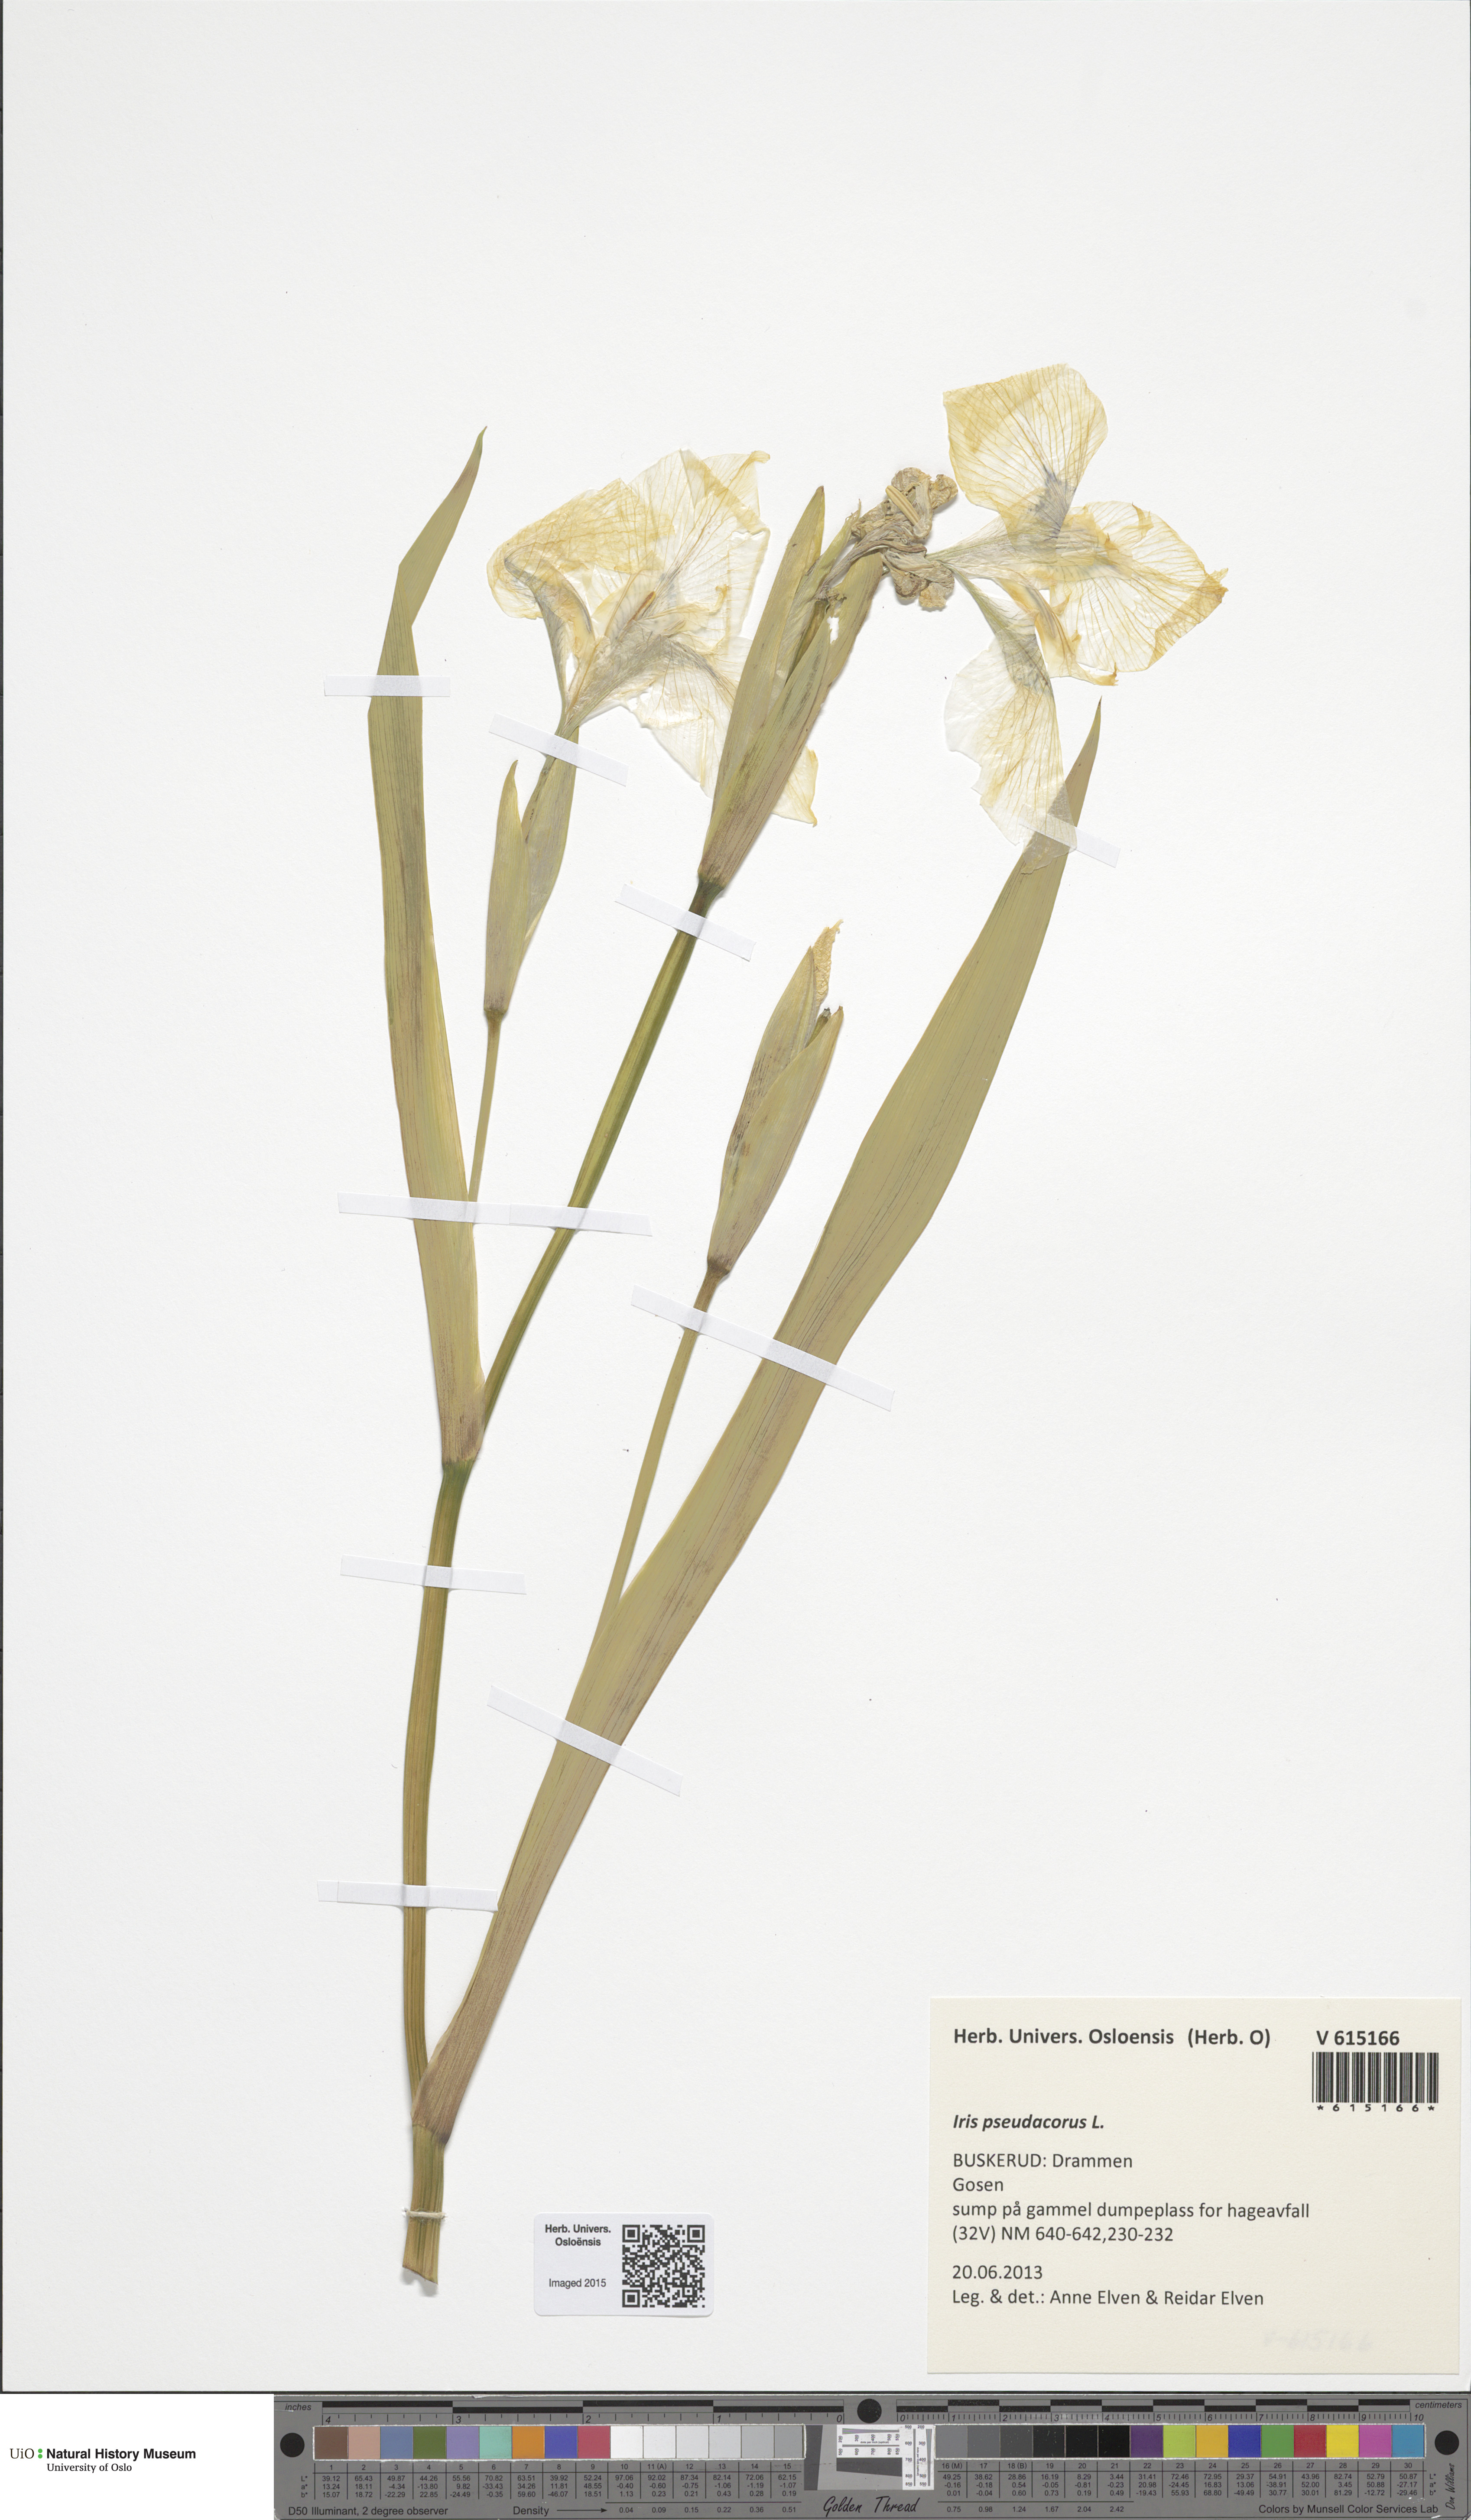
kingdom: Plantae
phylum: Tracheophyta
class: Liliopsida
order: Asparagales
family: Iridaceae
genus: Iris
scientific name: Iris pseudacorus
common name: Yellow flag
